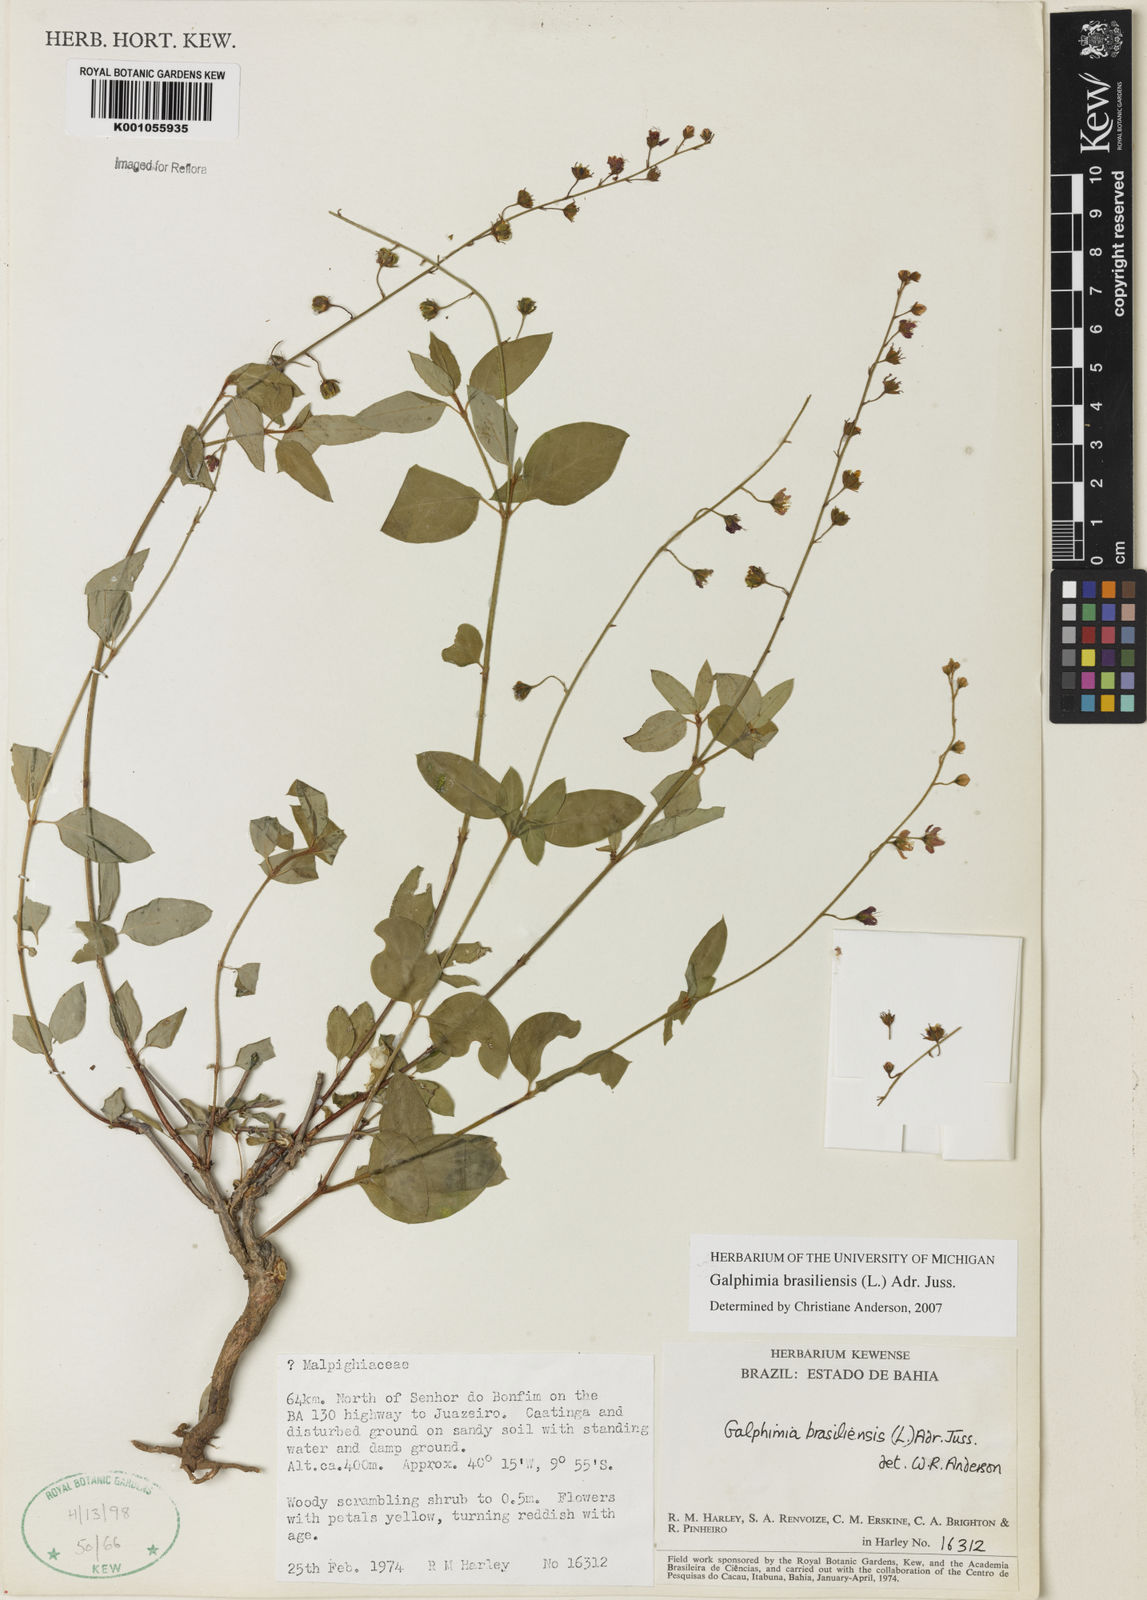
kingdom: Plantae
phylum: Tracheophyta
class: Magnoliopsida
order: Malpighiales
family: Malpighiaceae
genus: Galphimia
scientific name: Galphimia brasiliensis
